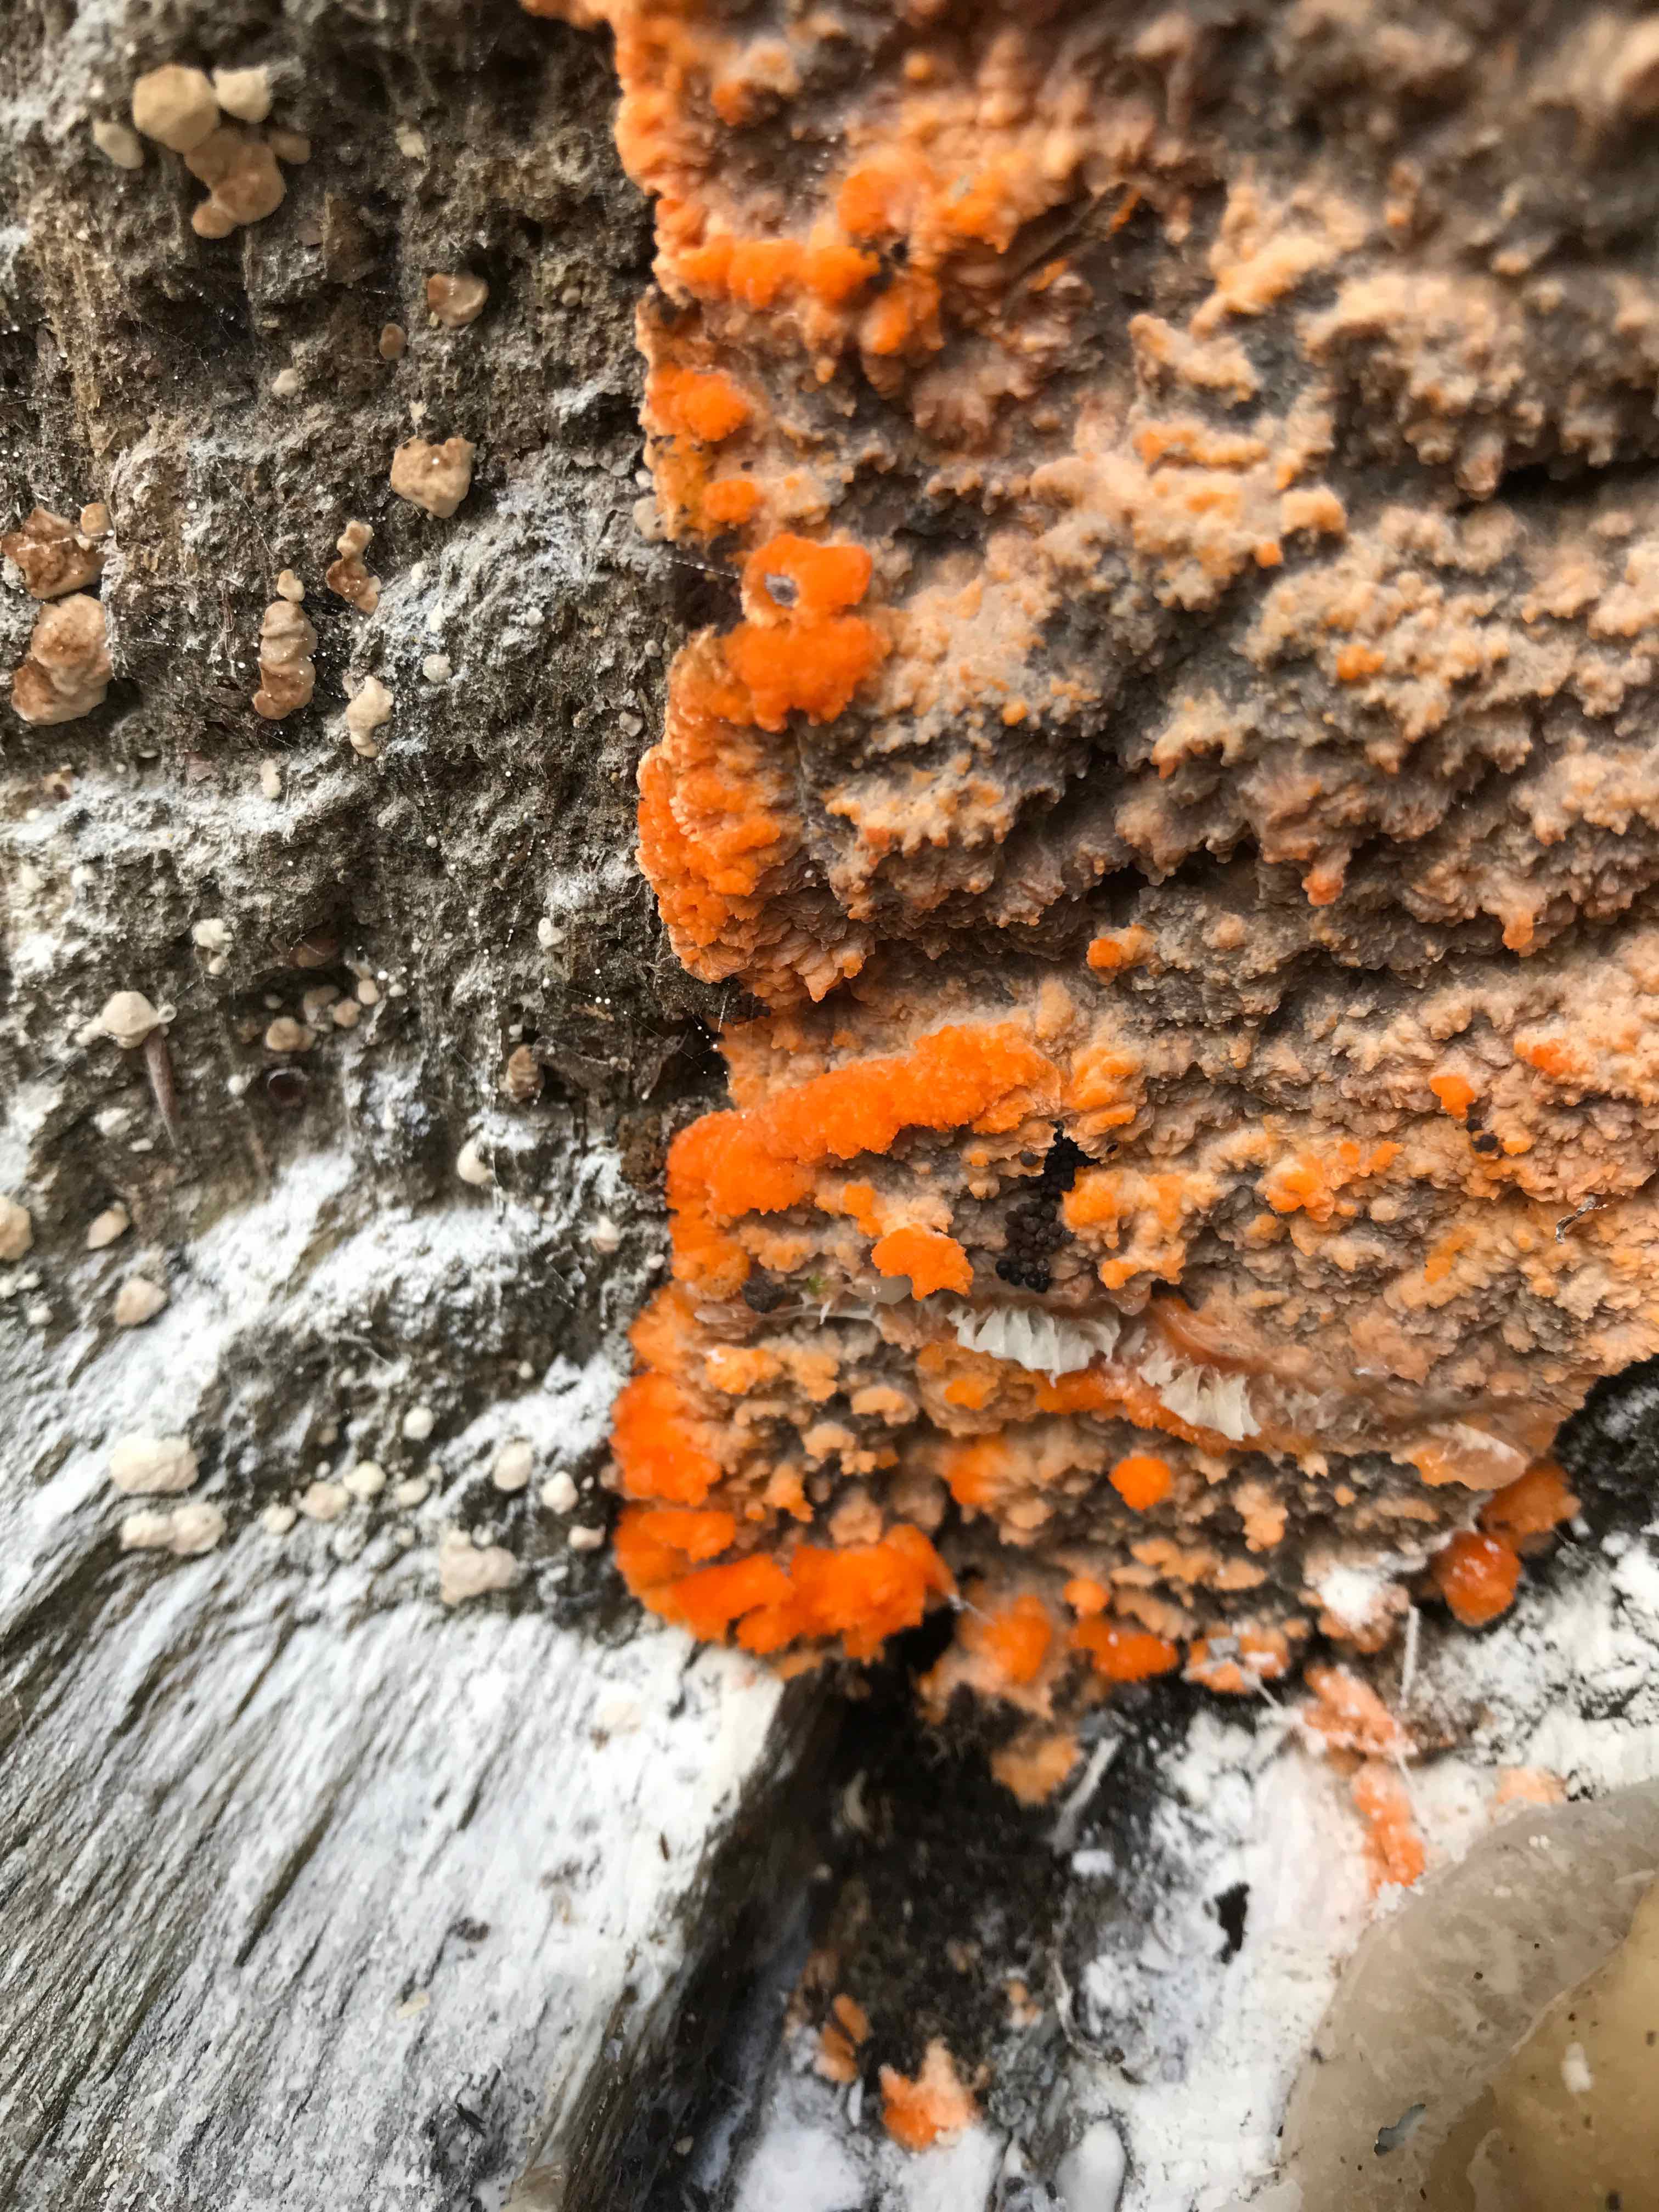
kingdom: Fungi
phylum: Basidiomycota
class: Agaricomycetes
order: Polyporales
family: Meruliaceae
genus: Phlebia
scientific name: Phlebia radiata
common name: stråle-åresvamp
